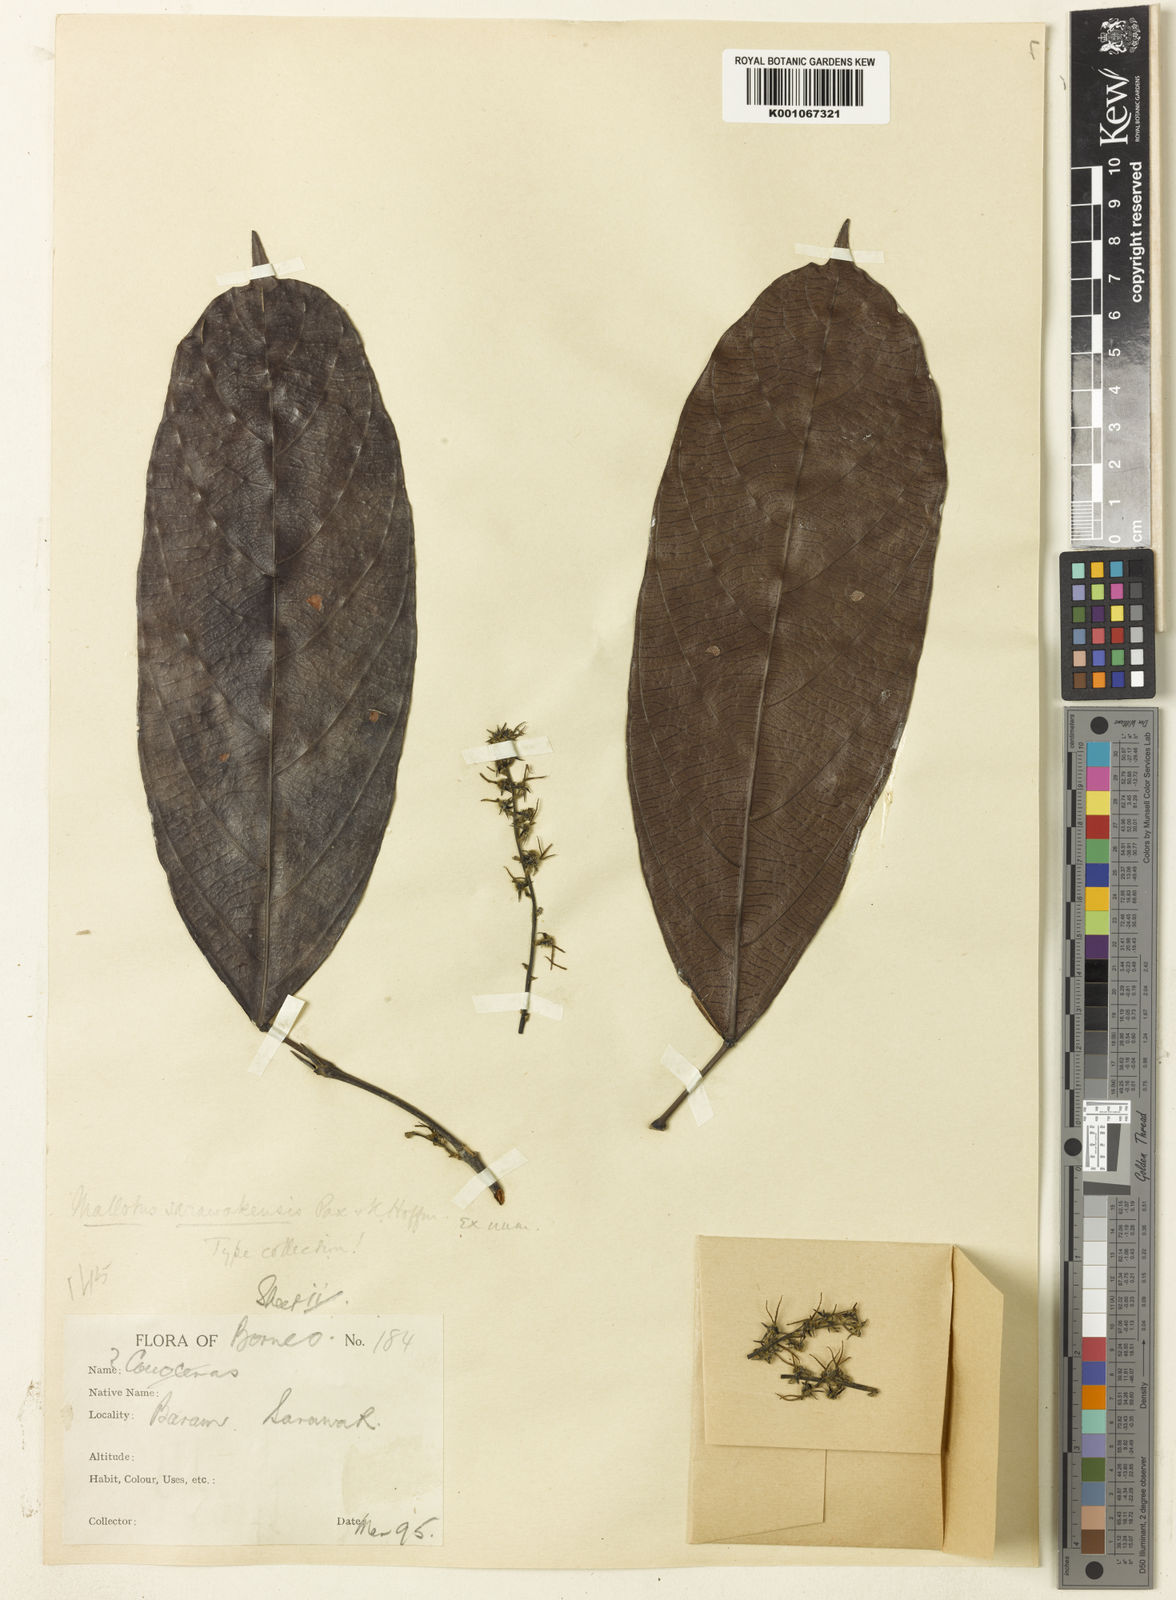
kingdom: Plantae
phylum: Tracheophyta
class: Magnoliopsida
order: Malpighiales
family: Euphorbiaceae
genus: Hancea
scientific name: Hancea penangensis
